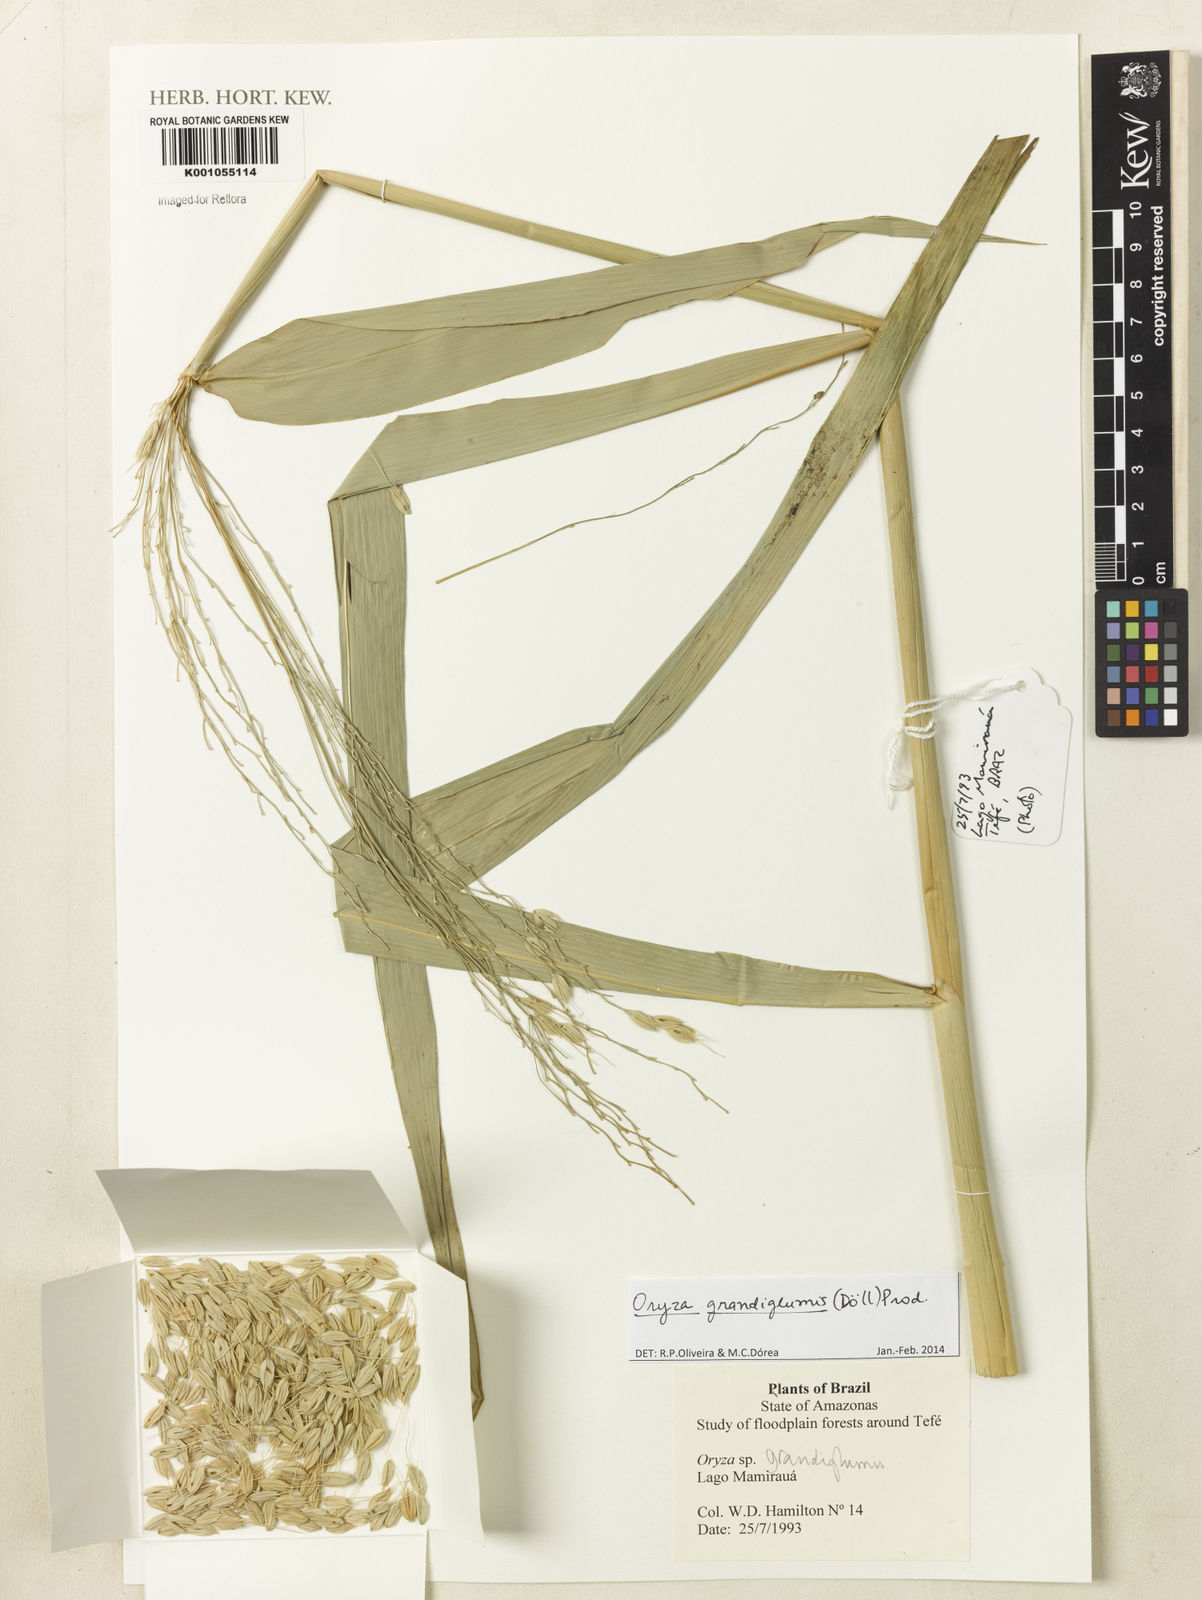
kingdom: Plantae
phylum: Tracheophyta
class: Liliopsida
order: Poales
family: Poaceae
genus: Oryza
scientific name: Oryza
